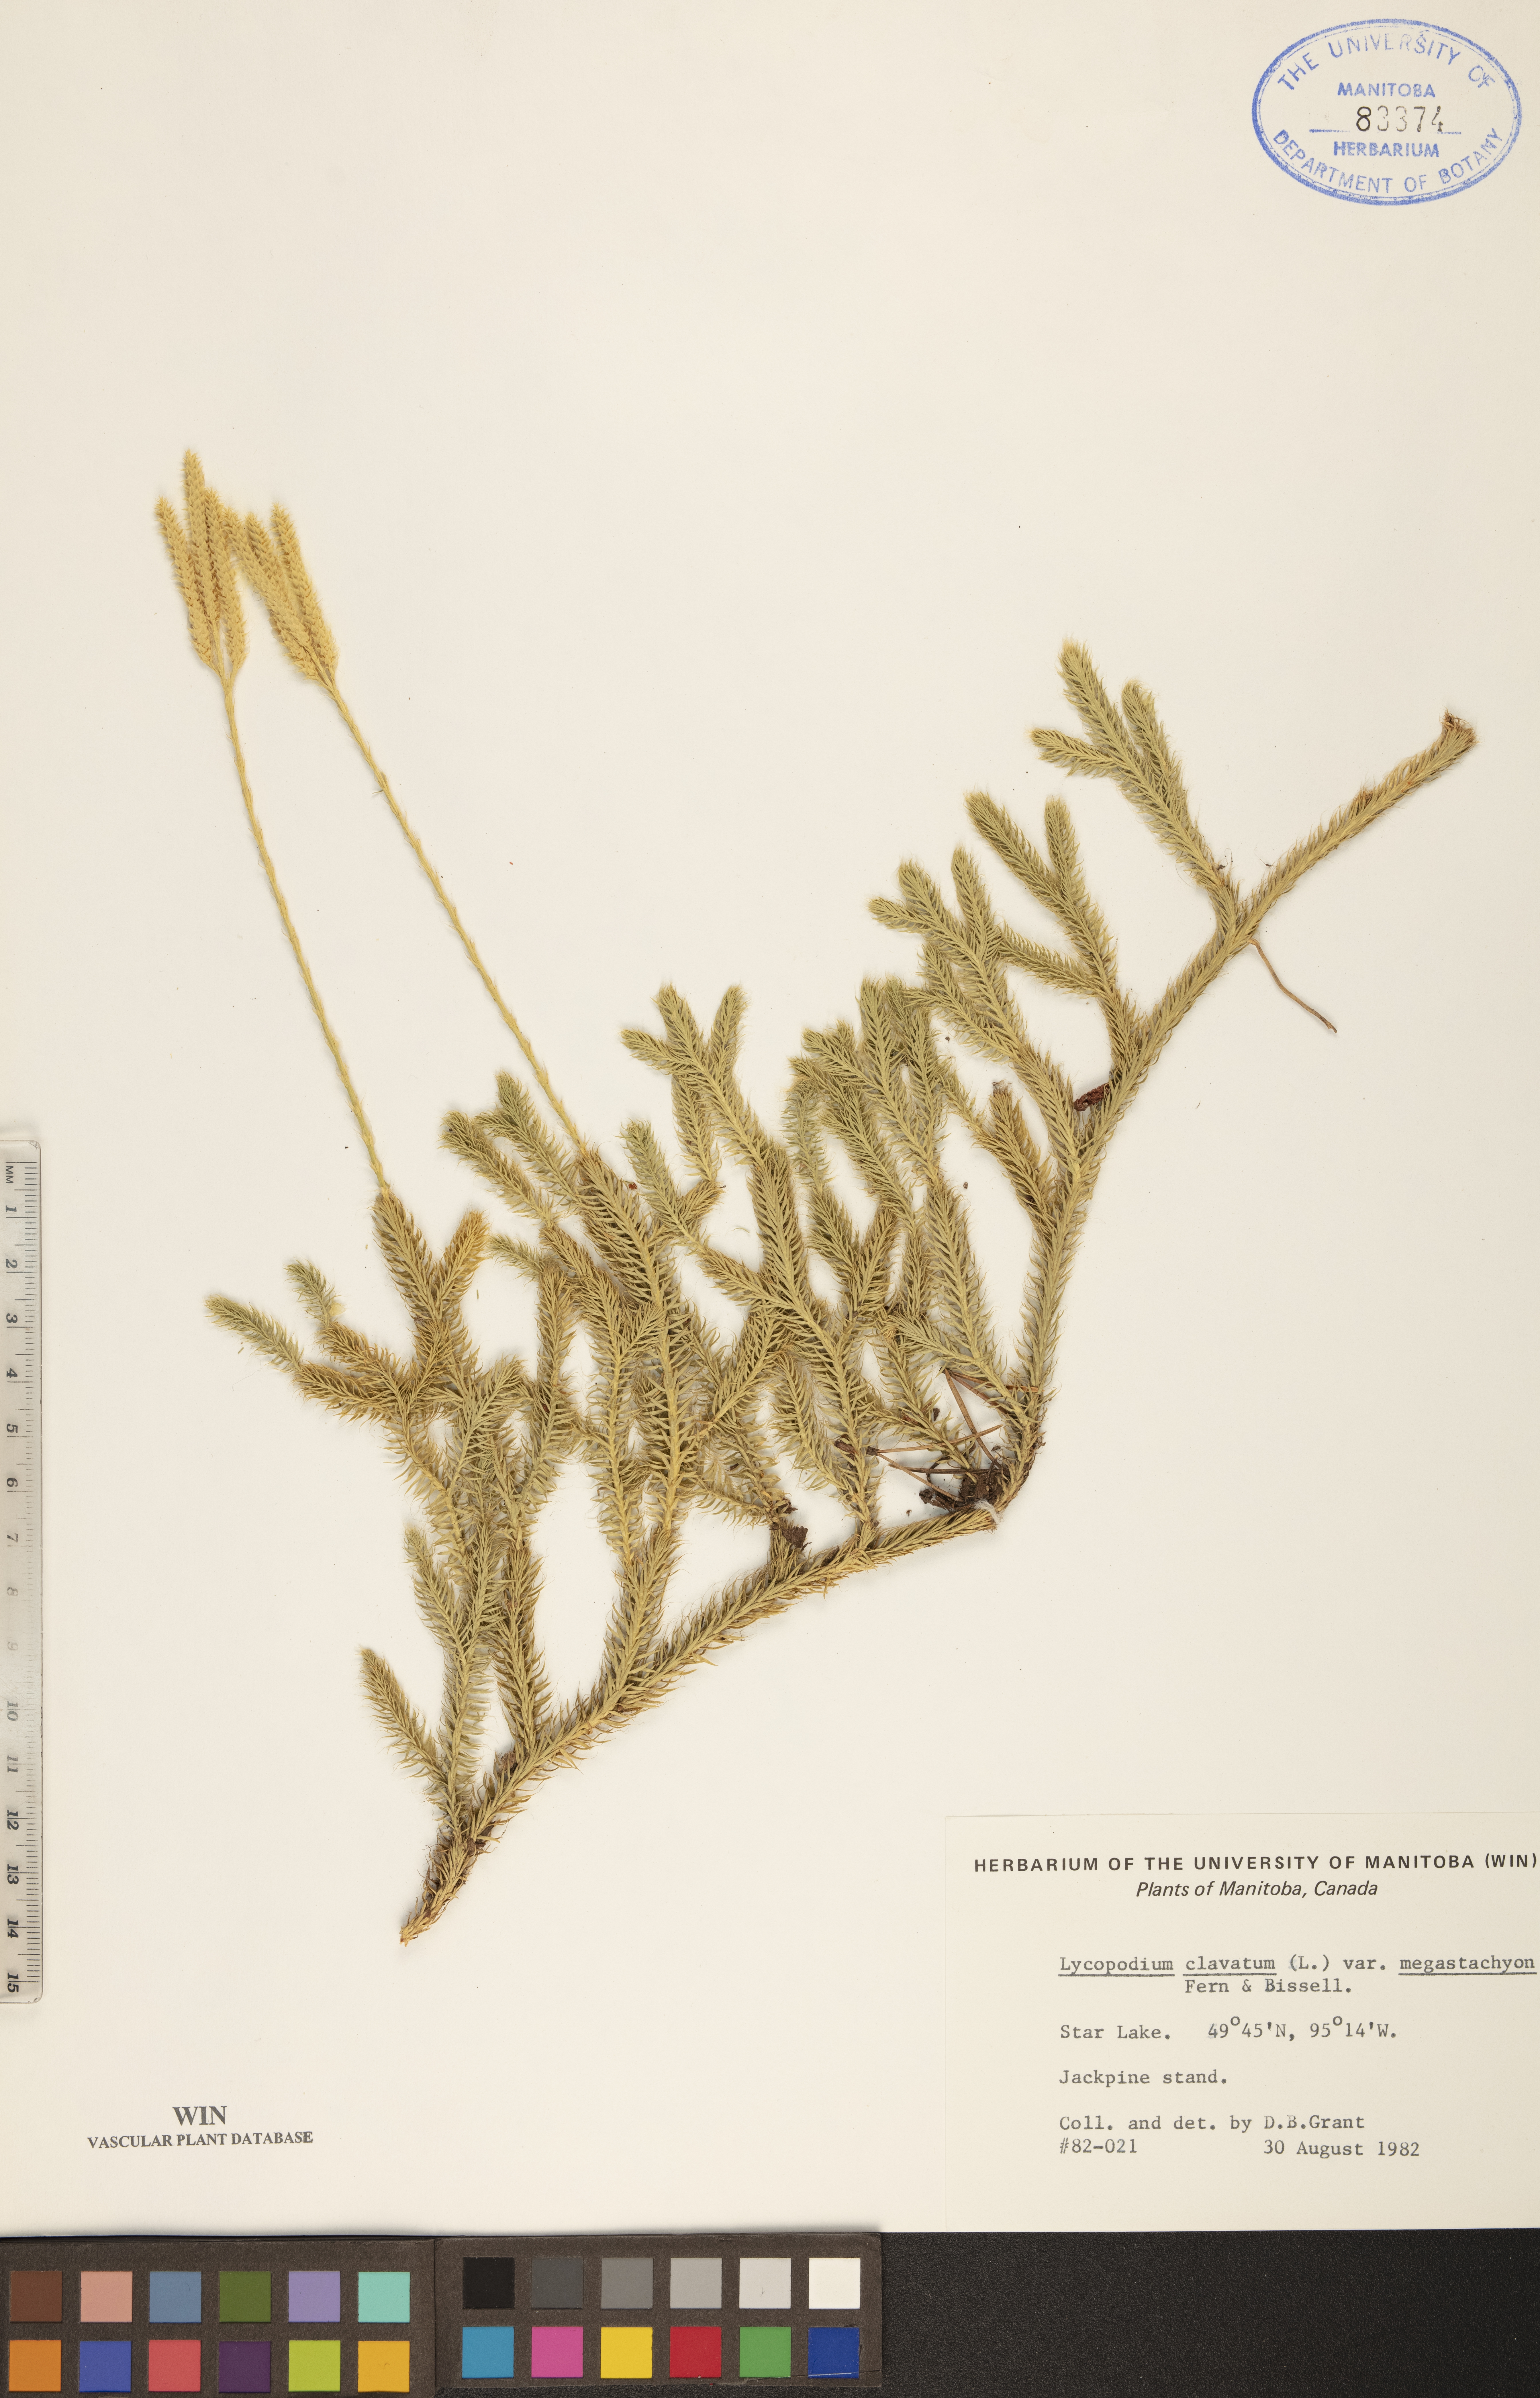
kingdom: Plantae
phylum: Tracheophyta
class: Lycopodiopsida
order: Lycopodiales
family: Lycopodiaceae
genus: Lycopodium
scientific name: Lycopodium lagopus
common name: One-cone clubmoss
